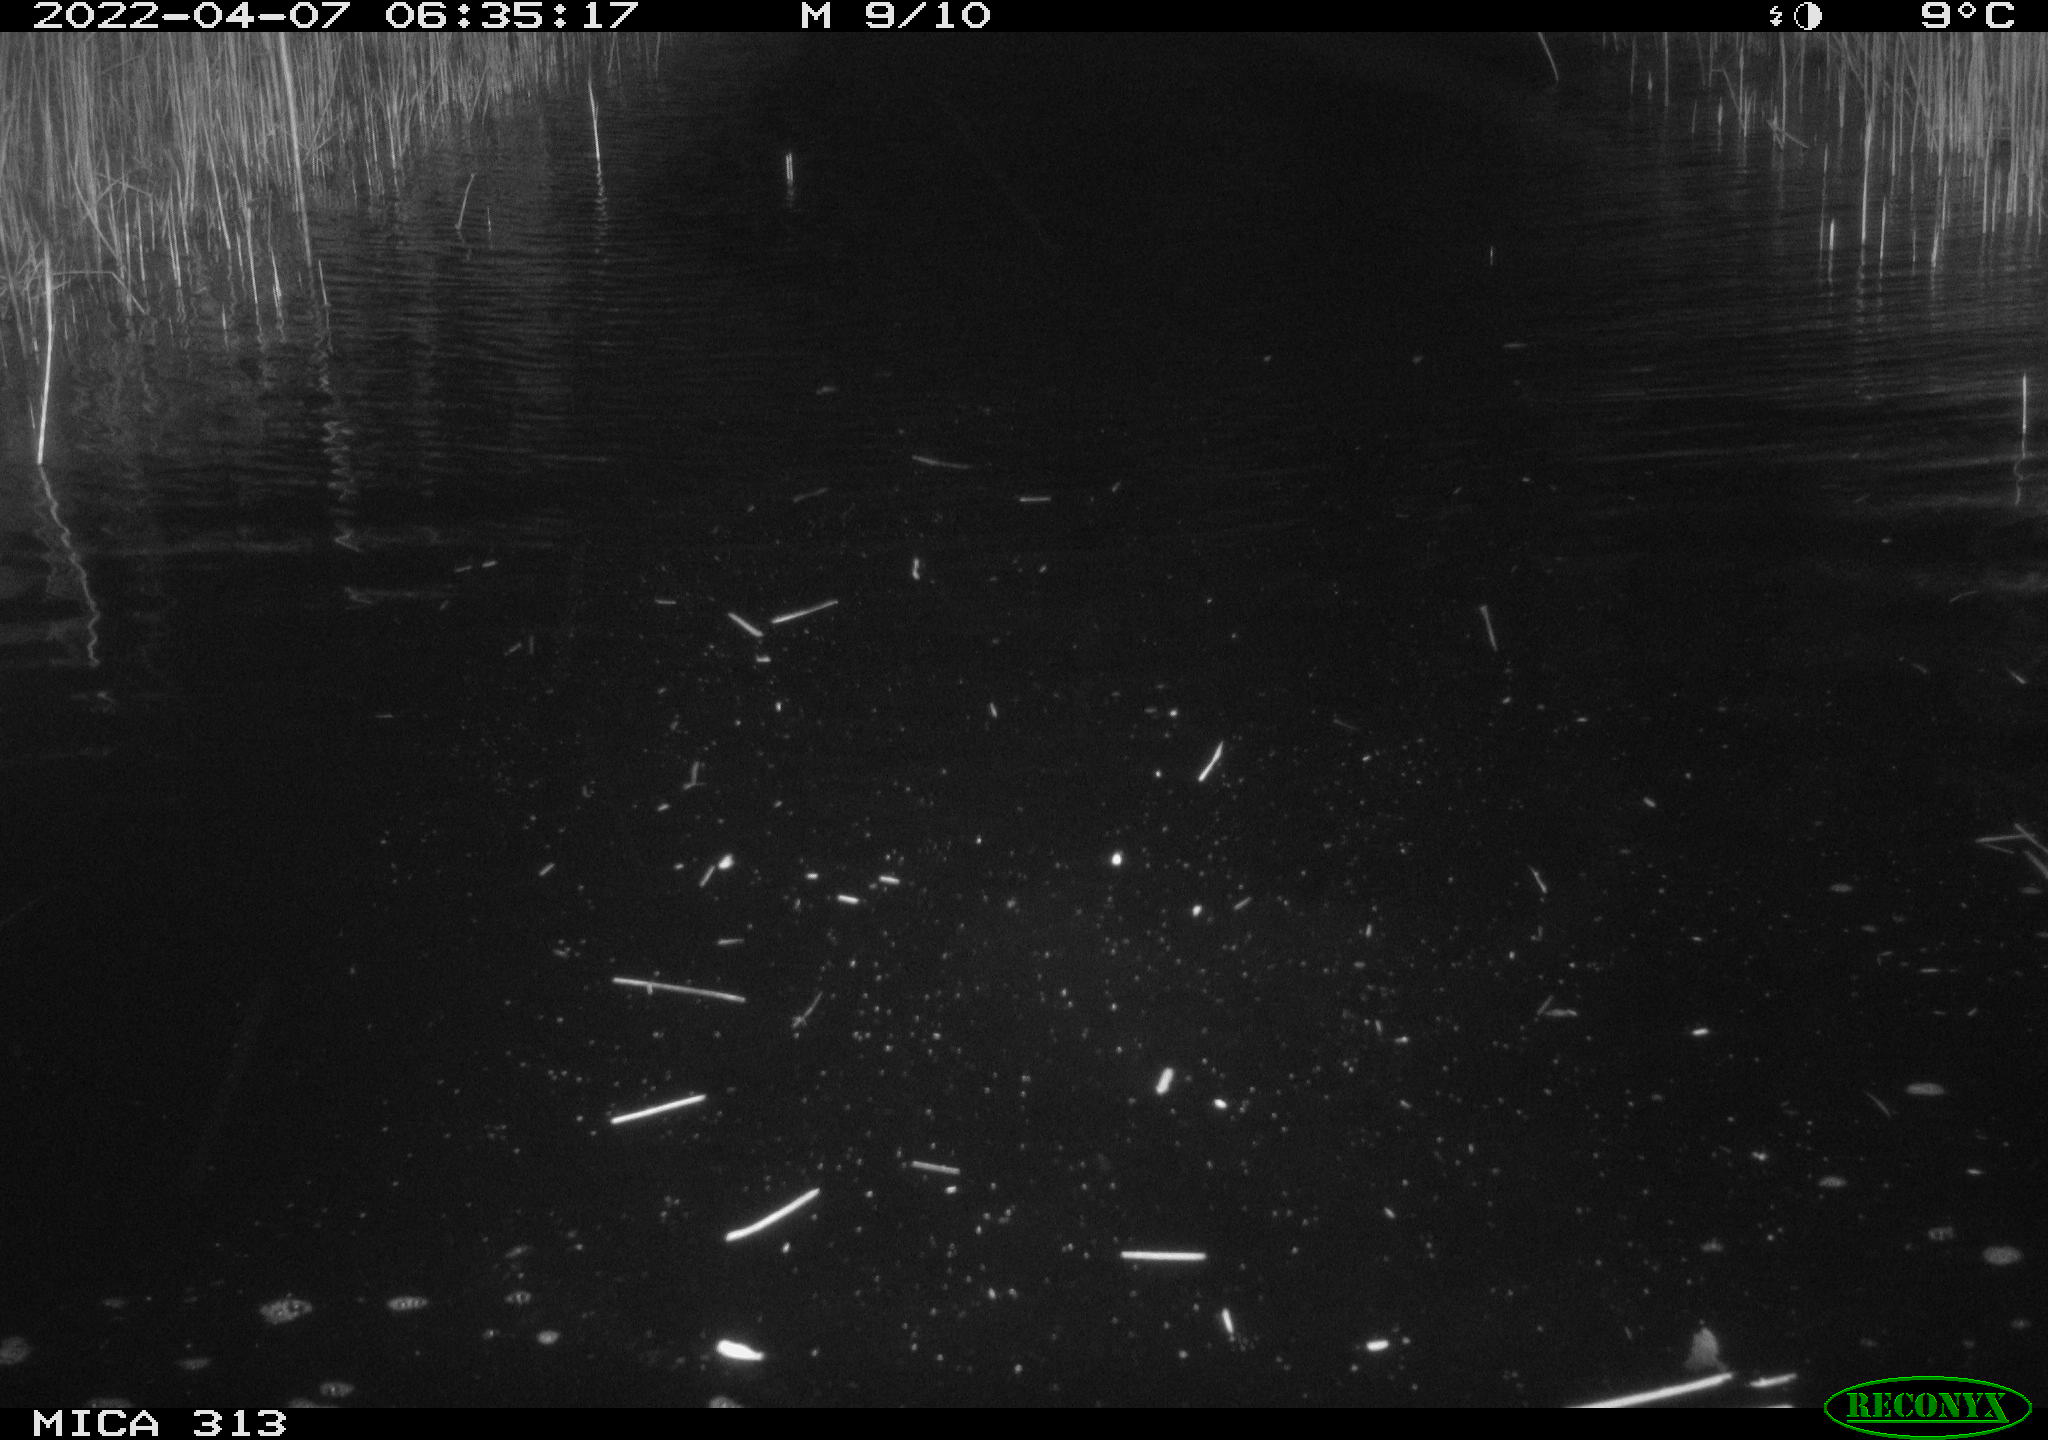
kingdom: Animalia
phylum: Chordata
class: Aves
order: Anseriformes
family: Anatidae
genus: Anas
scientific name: Anas platyrhynchos
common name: Mallard
